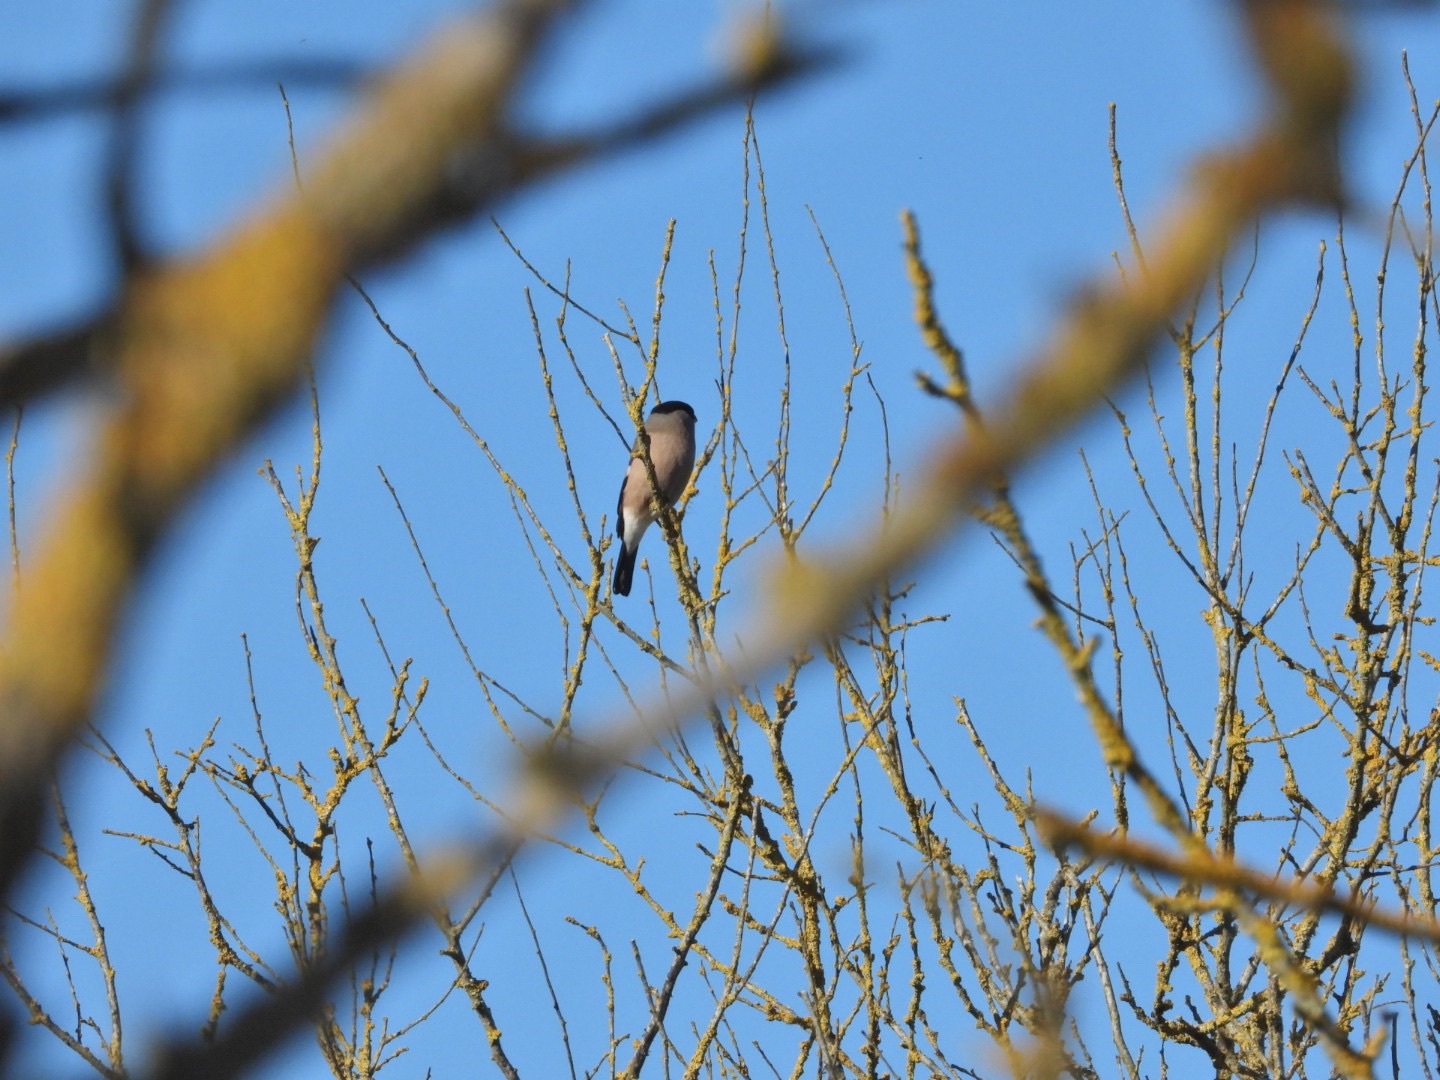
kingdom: Animalia
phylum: Chordata
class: Aves
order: Passeriformes
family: Fringillidae
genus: Pyrrhula
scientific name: Pyrrhula pyrrhula
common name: Dompap
